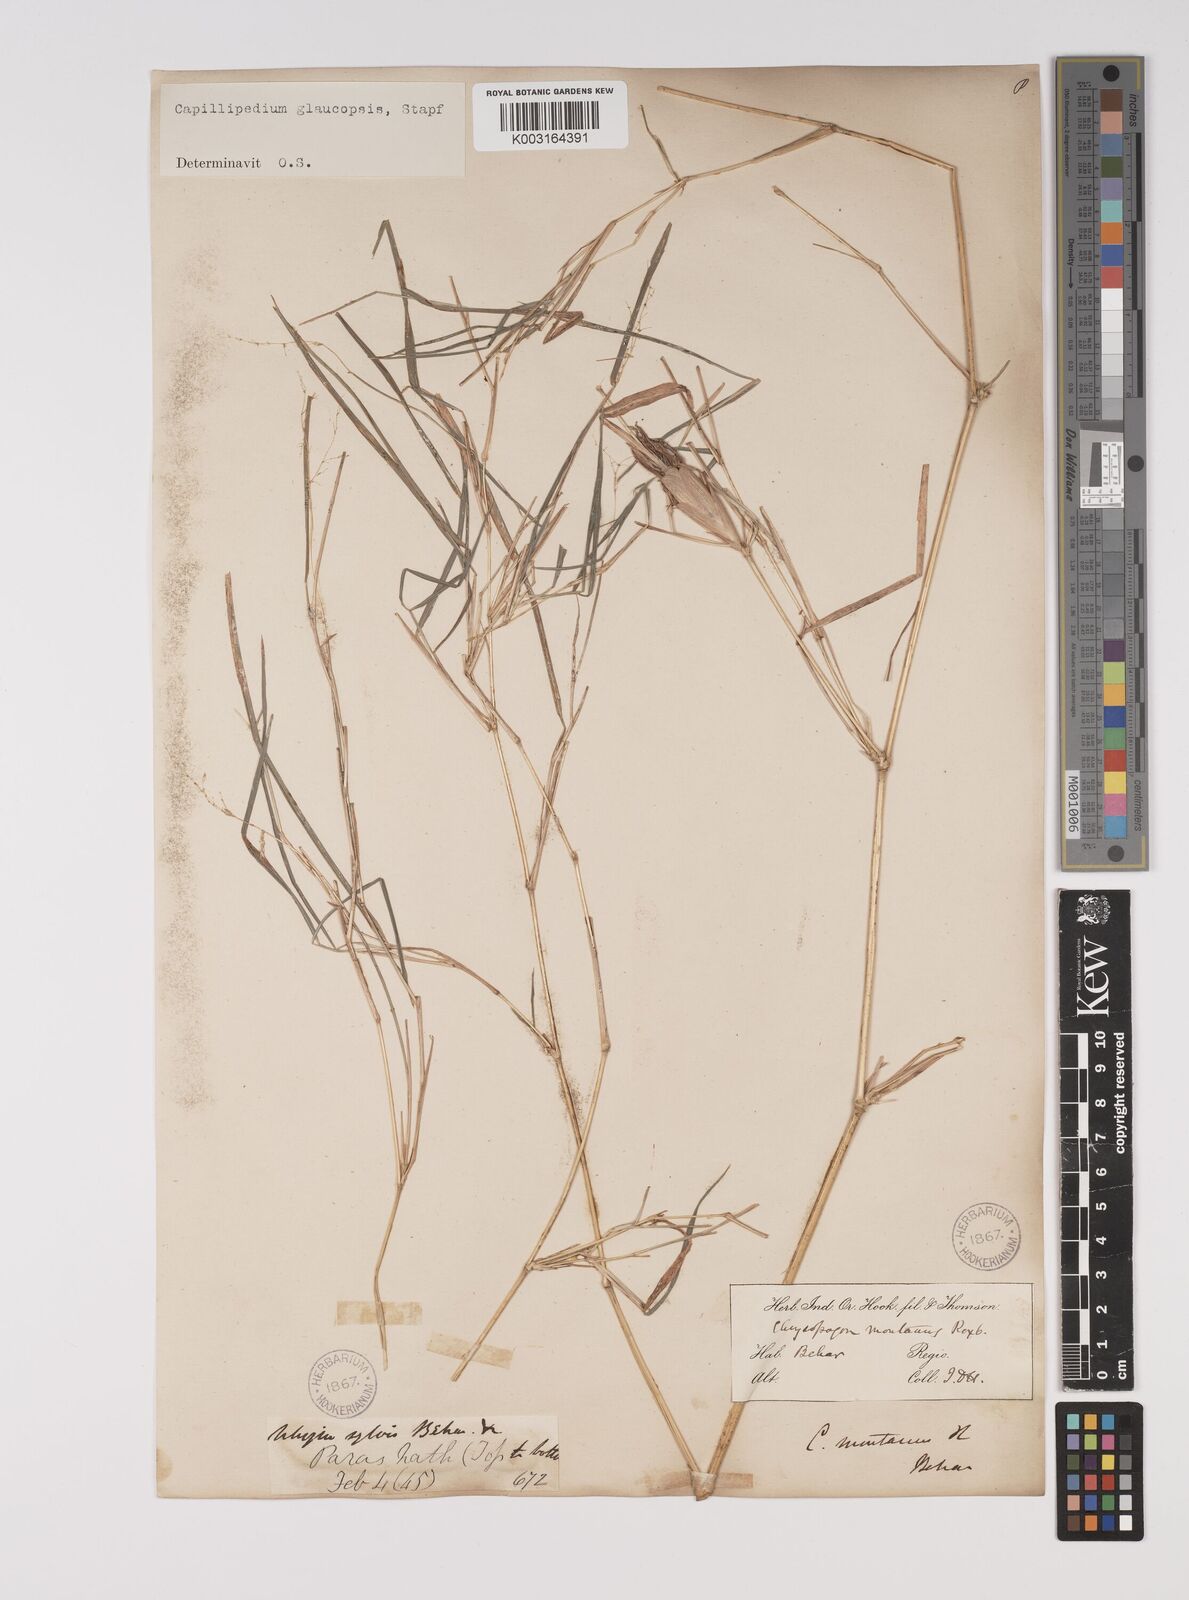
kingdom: Plantae
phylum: Tracheophyta
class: Liliopsida
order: Poales
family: Poaceae
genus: Capillipedium
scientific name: Capillipedium assimile
